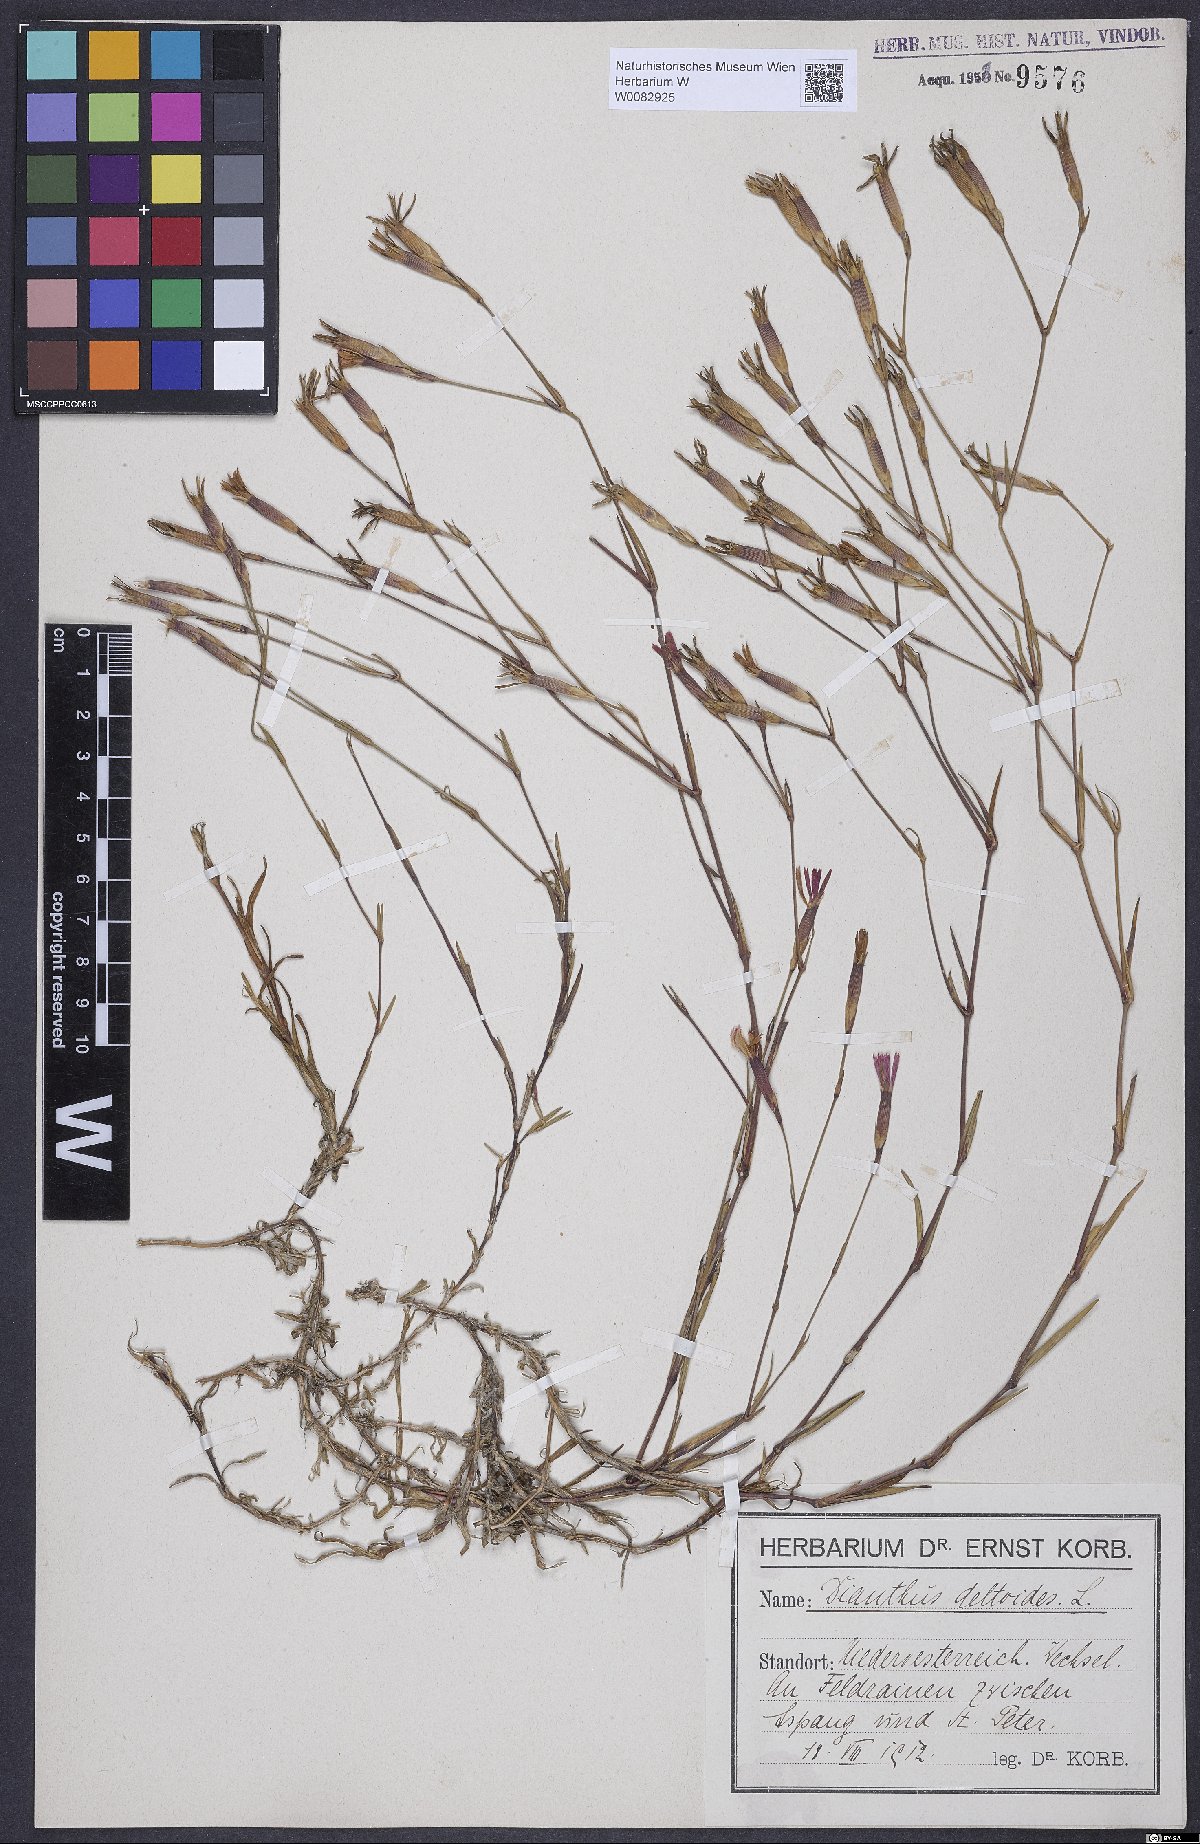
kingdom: Plantae
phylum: Tracheophyta
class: Magnoliopsida
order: Caryophyllales
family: Caryophyllaceae
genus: Dianthus
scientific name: Dianthus deltoides
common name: Maiden pink
